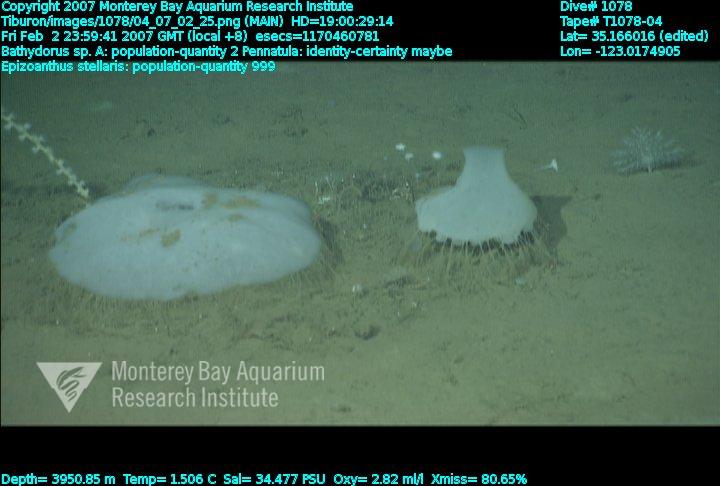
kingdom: Animalia
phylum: Porifera
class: Hexactinellida
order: Lyssacinosida
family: Rossellidae
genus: Bathydorus
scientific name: Bathydorus laniger
